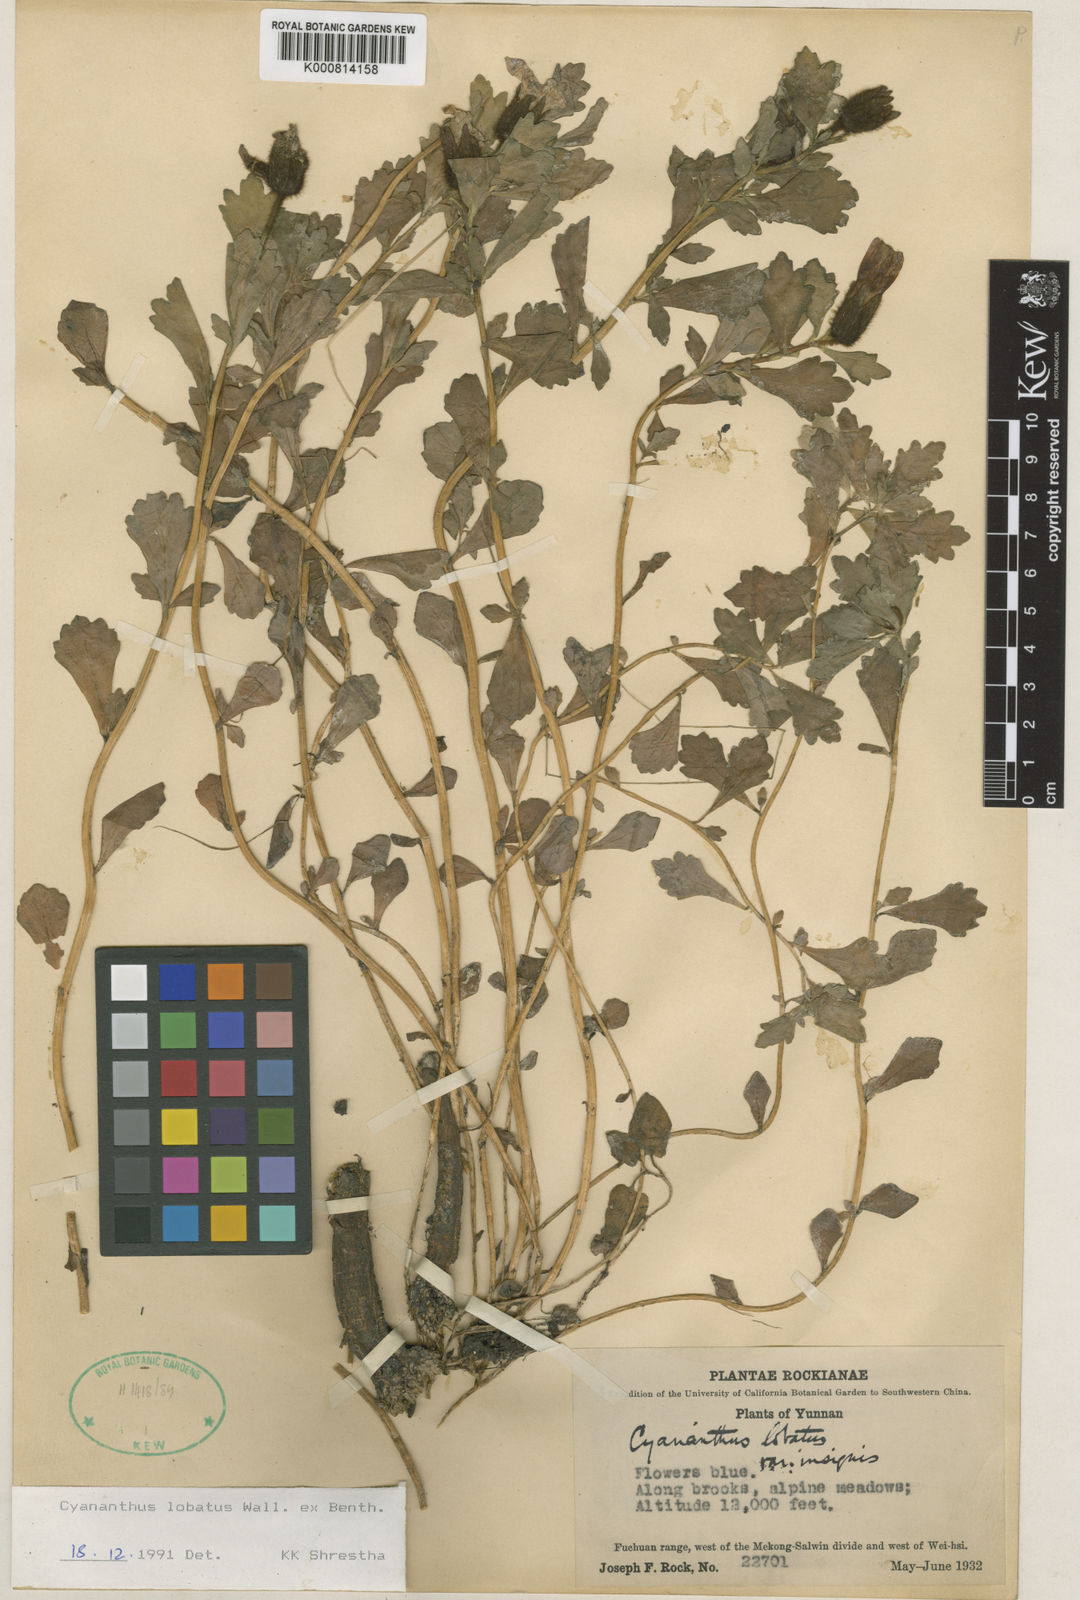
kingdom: Plantae
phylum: Tracheophyta
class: Magnoliopsida
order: Asterales
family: Campanulaceae
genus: Cyananthus
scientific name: Cyananthus lobatus
